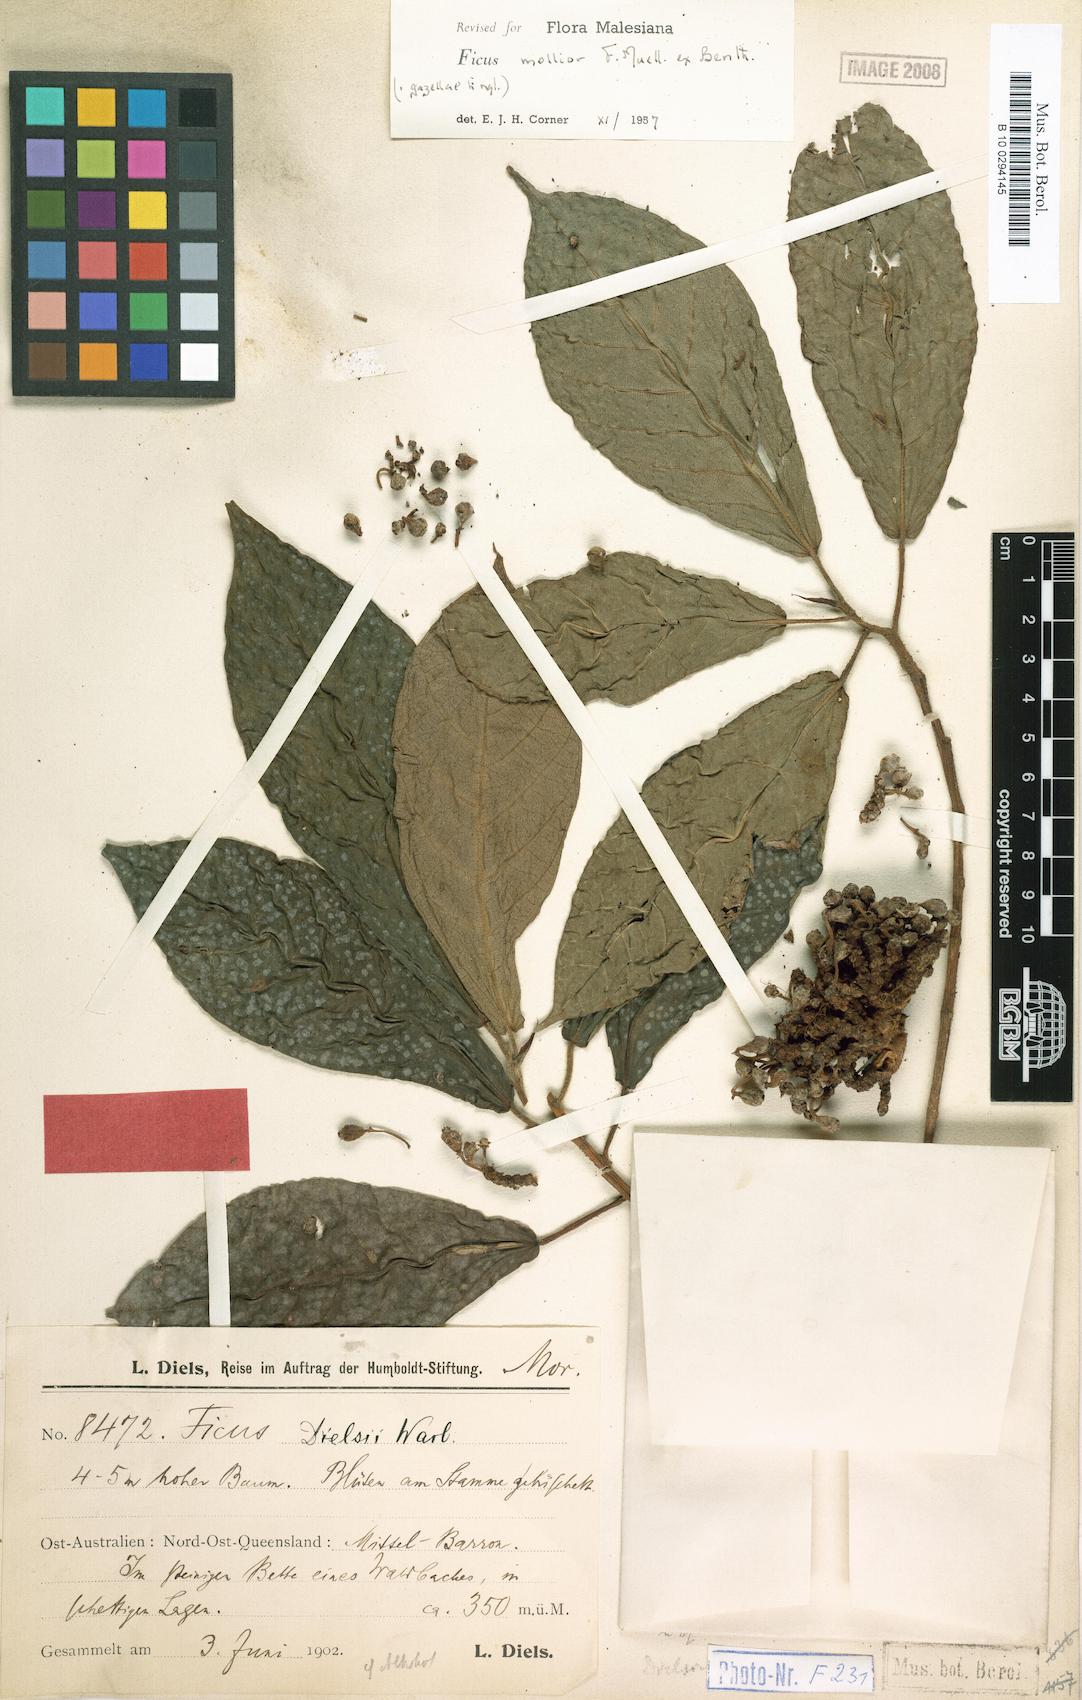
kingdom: Plantae
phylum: Tracheophyta
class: Magnoliopsida
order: Rosales
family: Moraceae
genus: Ficus
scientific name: Ficus mollior
